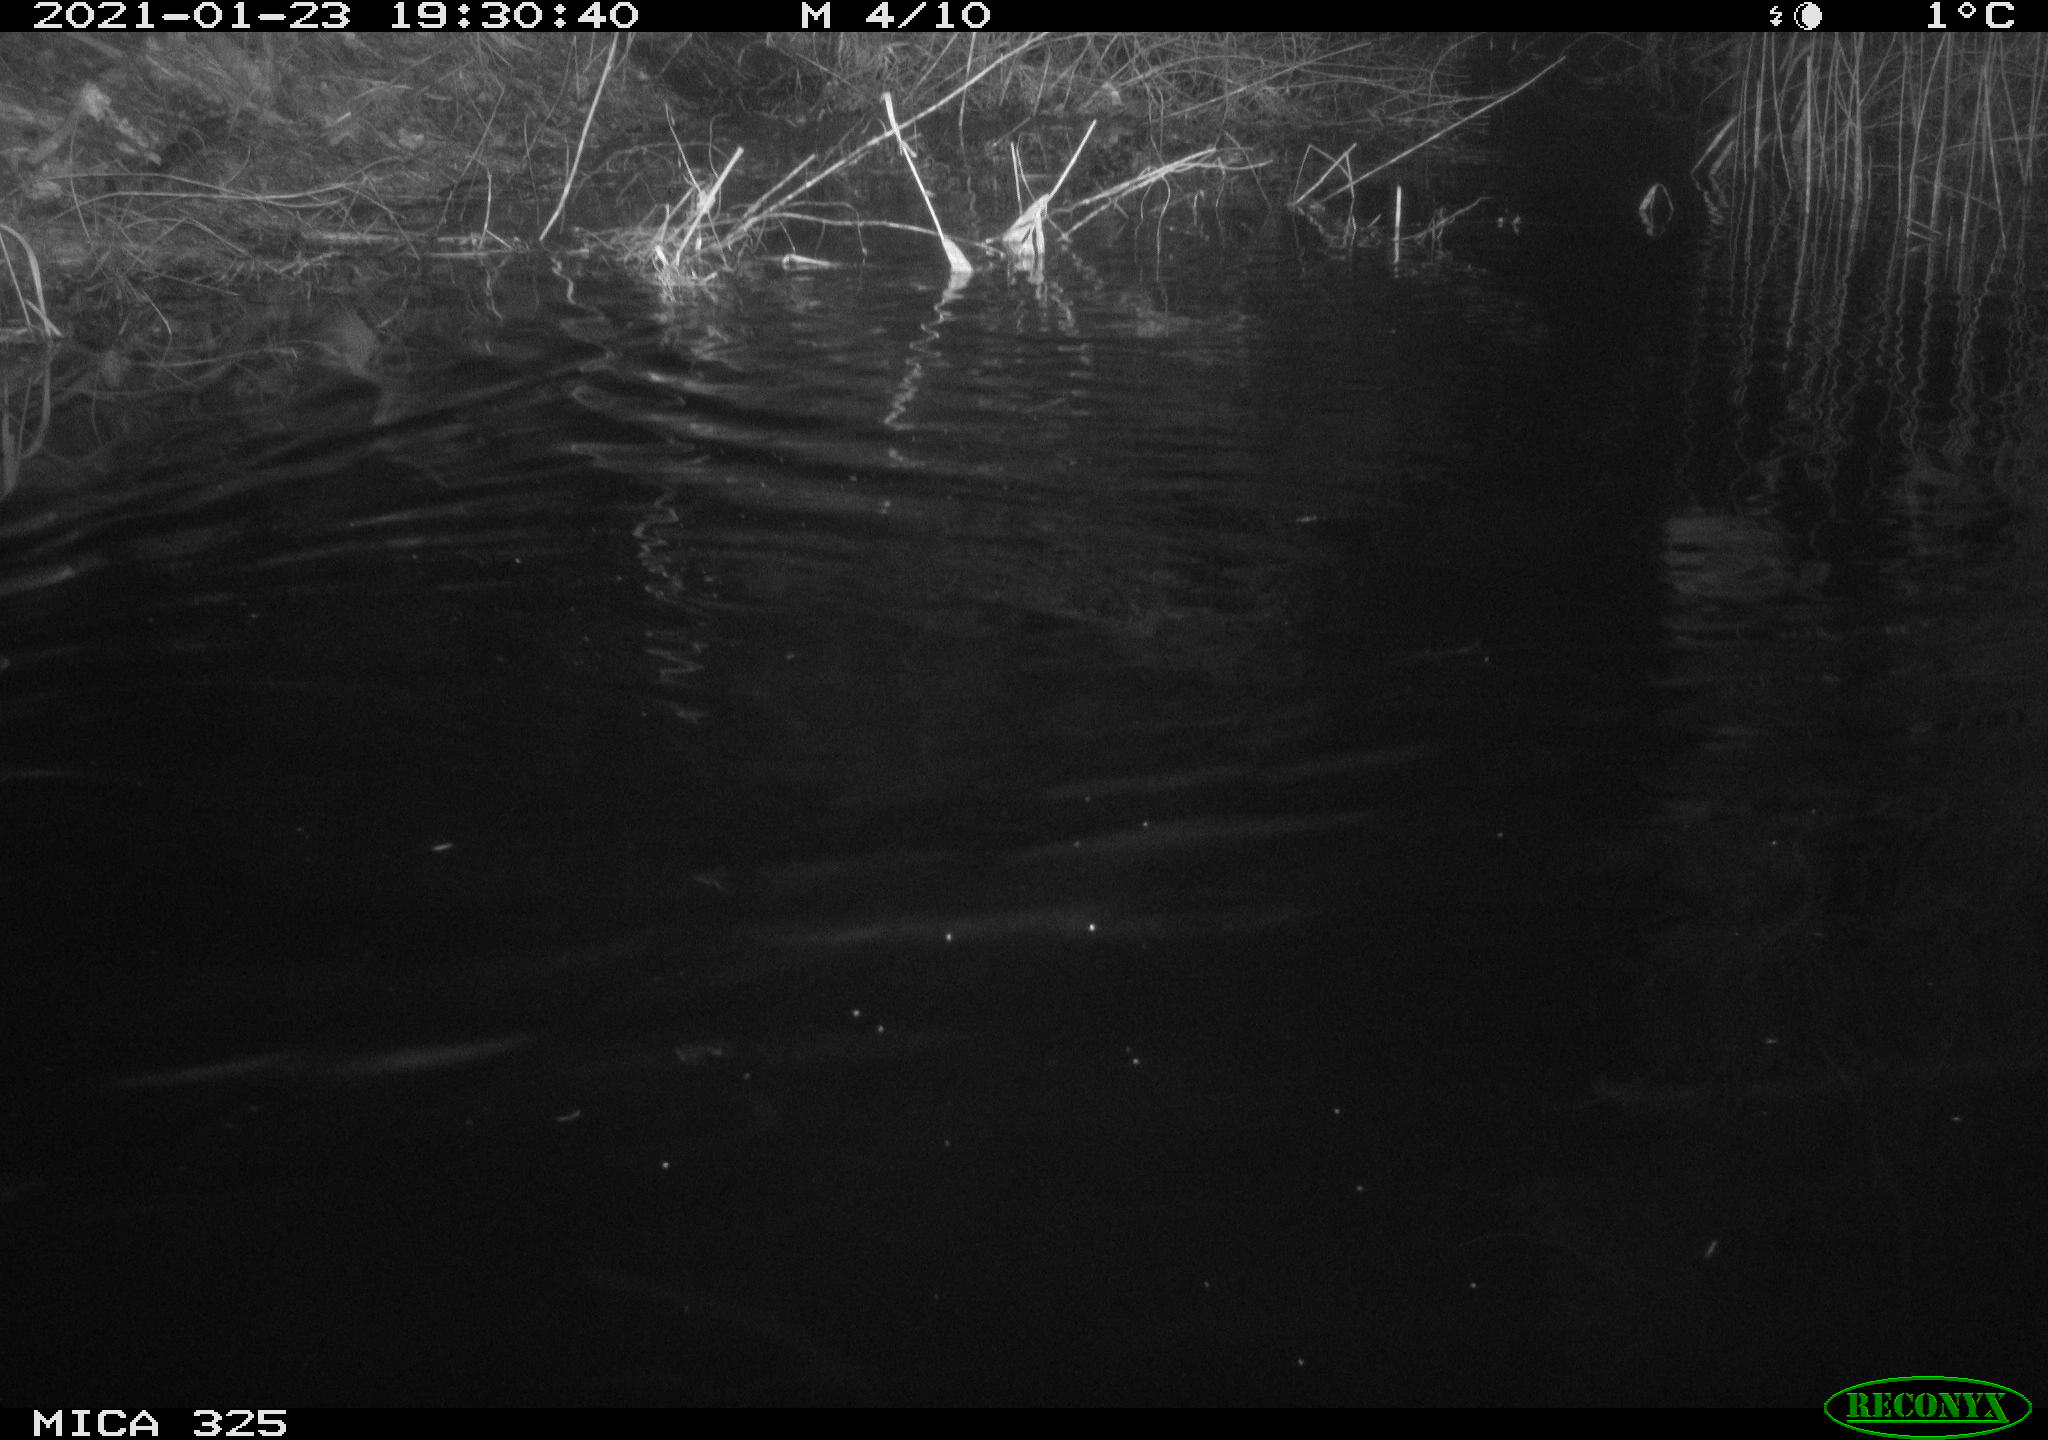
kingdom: Animalia
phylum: Chordata
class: Mammalia
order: Rodentia
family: Cricetidae
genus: Ondatra
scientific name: Ondatra zibethicus
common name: Muskrat
